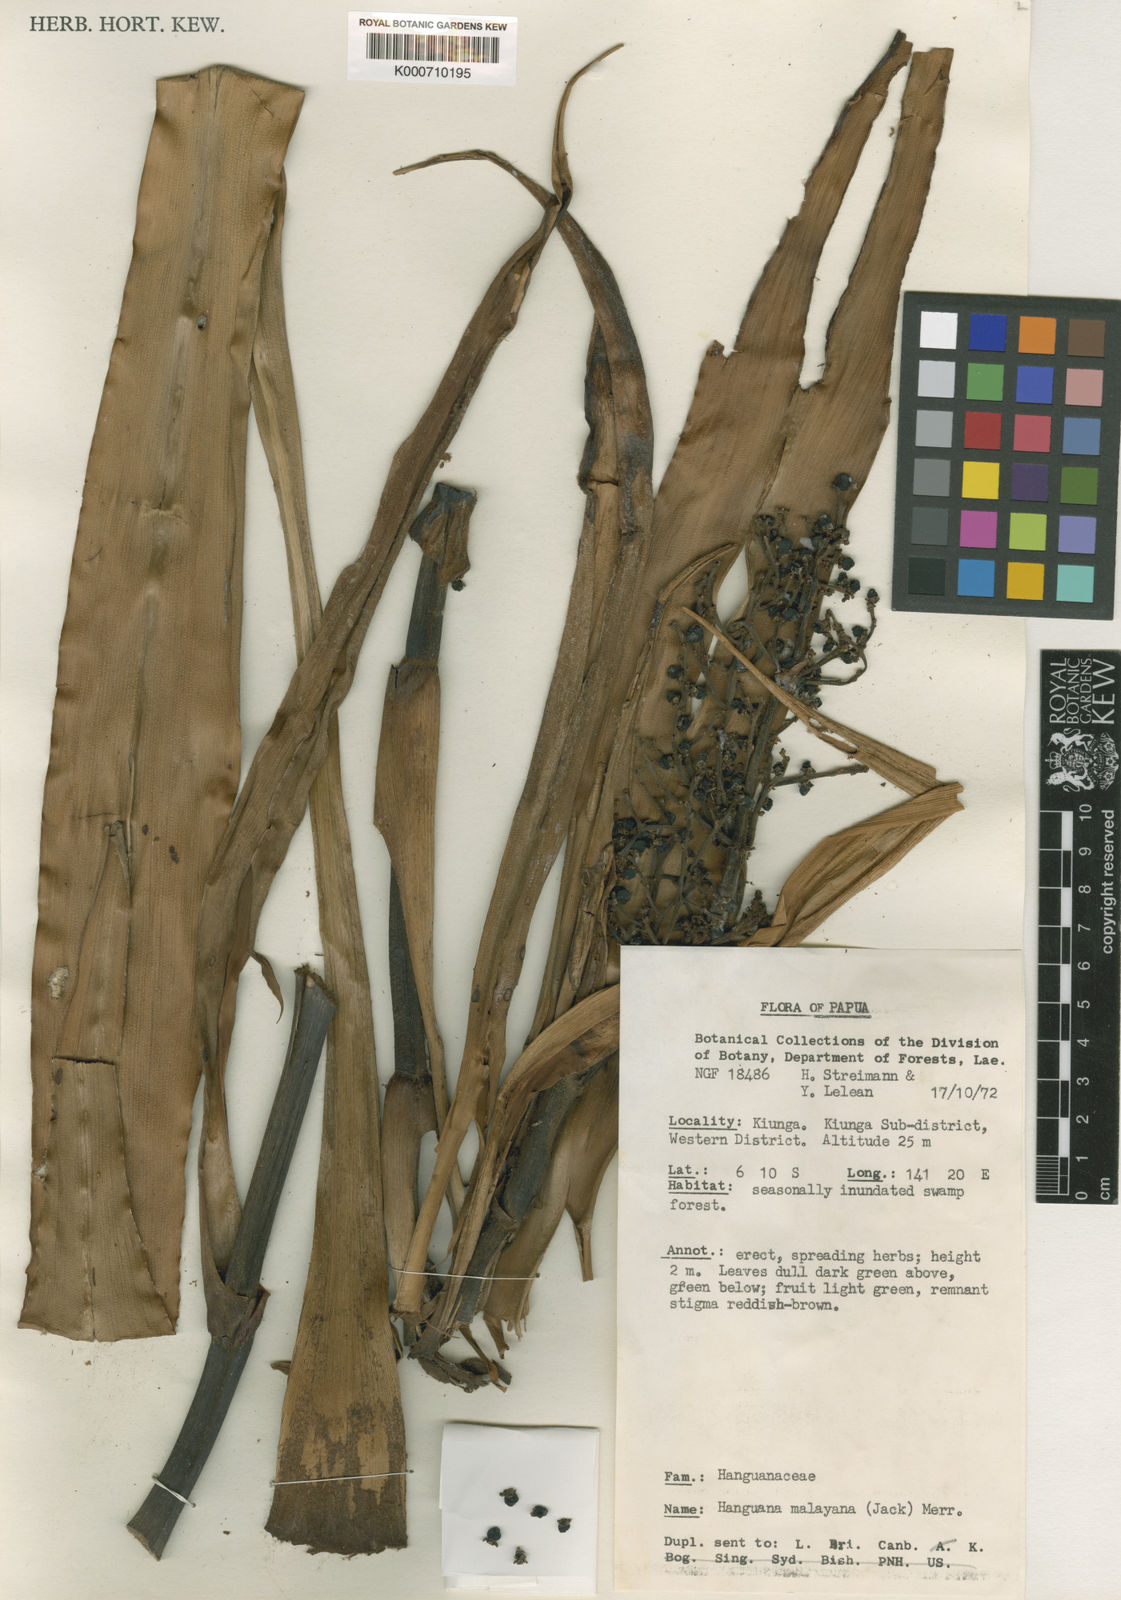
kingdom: Plantae
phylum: Tracheophyta
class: Liliopsida
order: Commelinales
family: Hanguanaceae
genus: Hanguana
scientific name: Hanguana malayana
